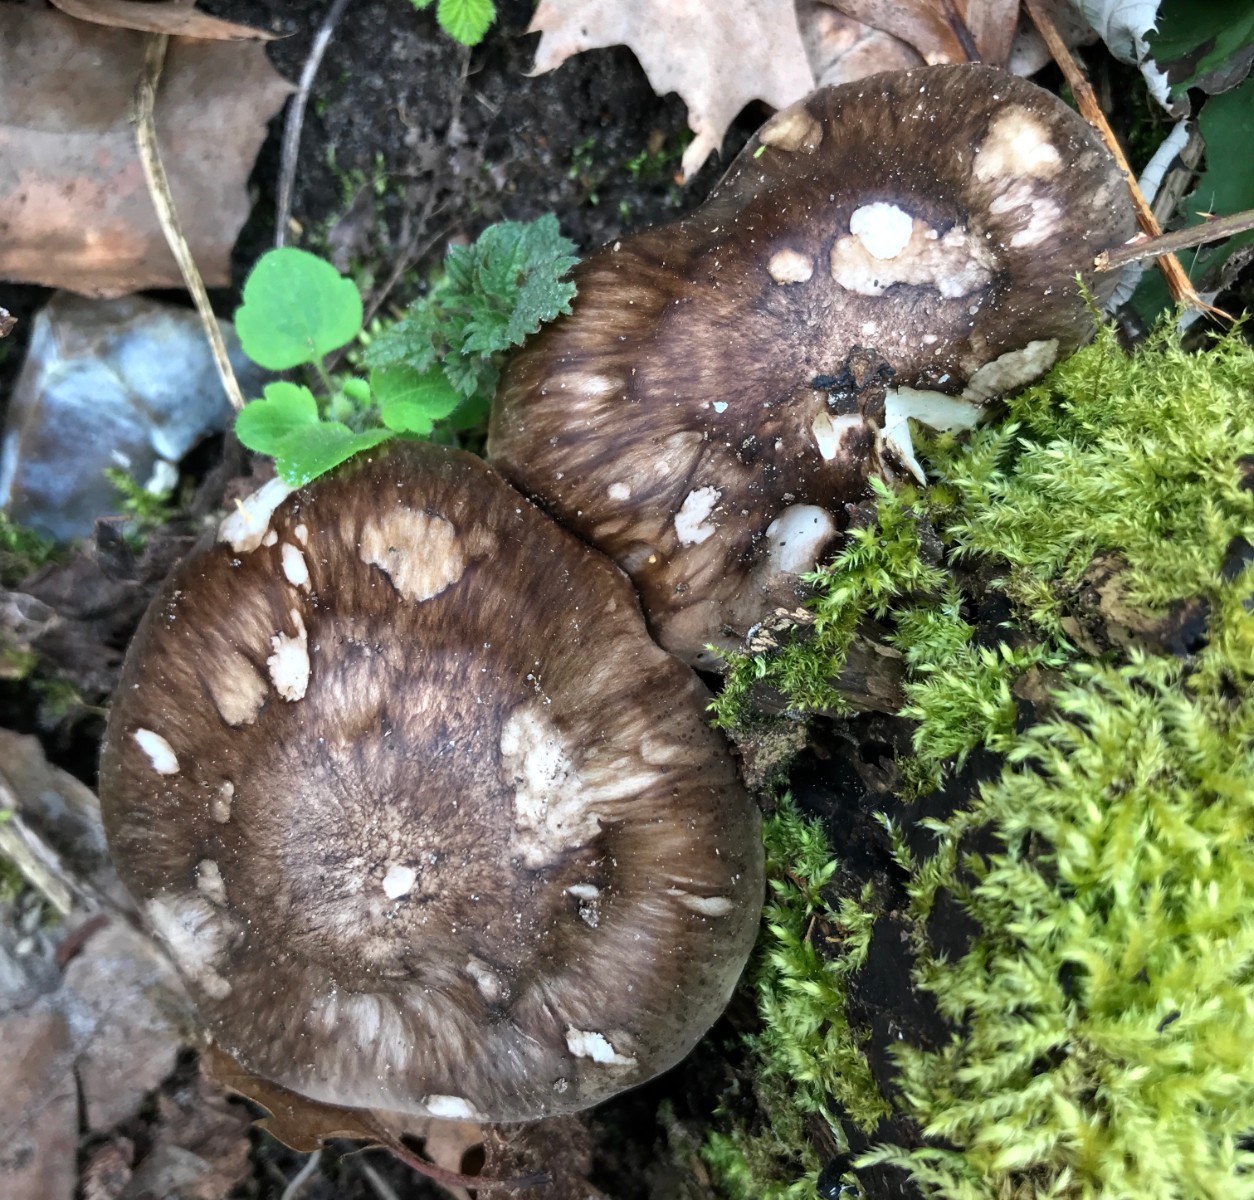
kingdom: Fungi
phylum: Basidiomycota
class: Agaricomycetes
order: Agaricales
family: Pluteaceae
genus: Pluteus
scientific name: Pluteus cervinus
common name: sodfarvet skærmhat
